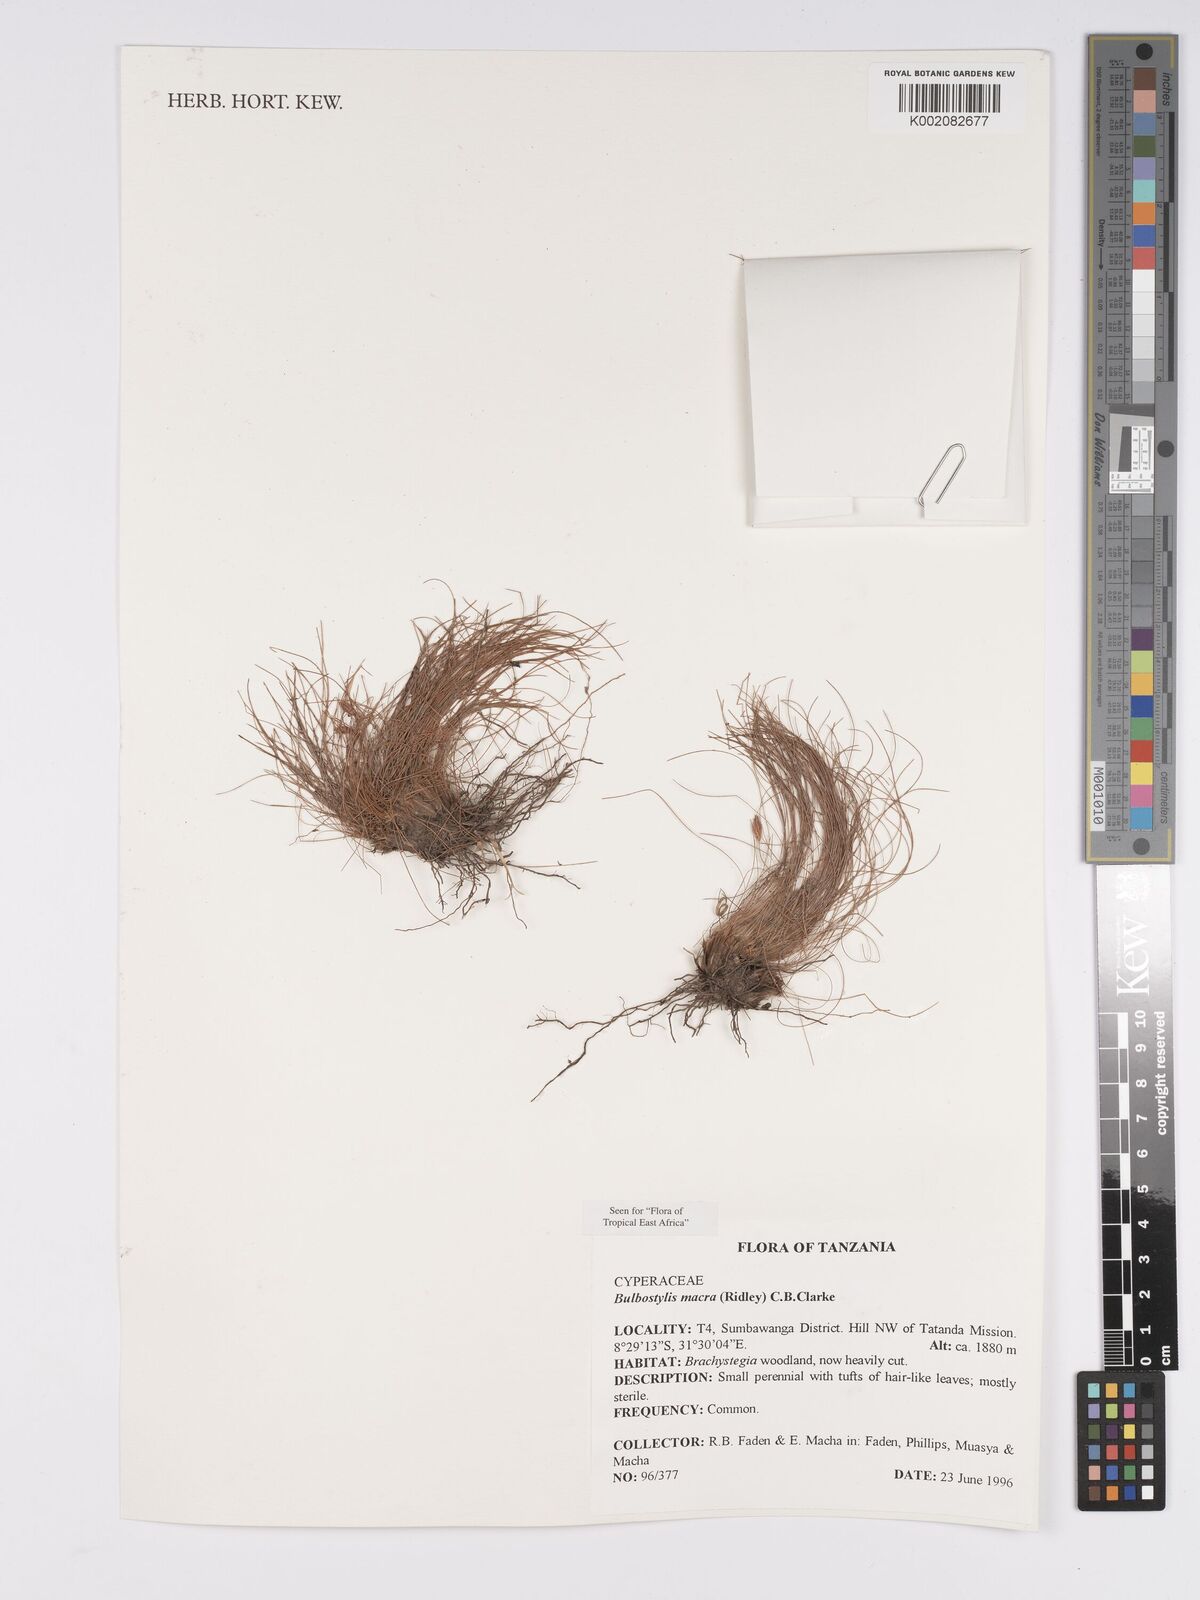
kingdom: Plantae
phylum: Tracheophyta
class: Liliopsida
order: Poales
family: Cyperaceae
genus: Bulbostylis
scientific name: Bulbostylis macra
